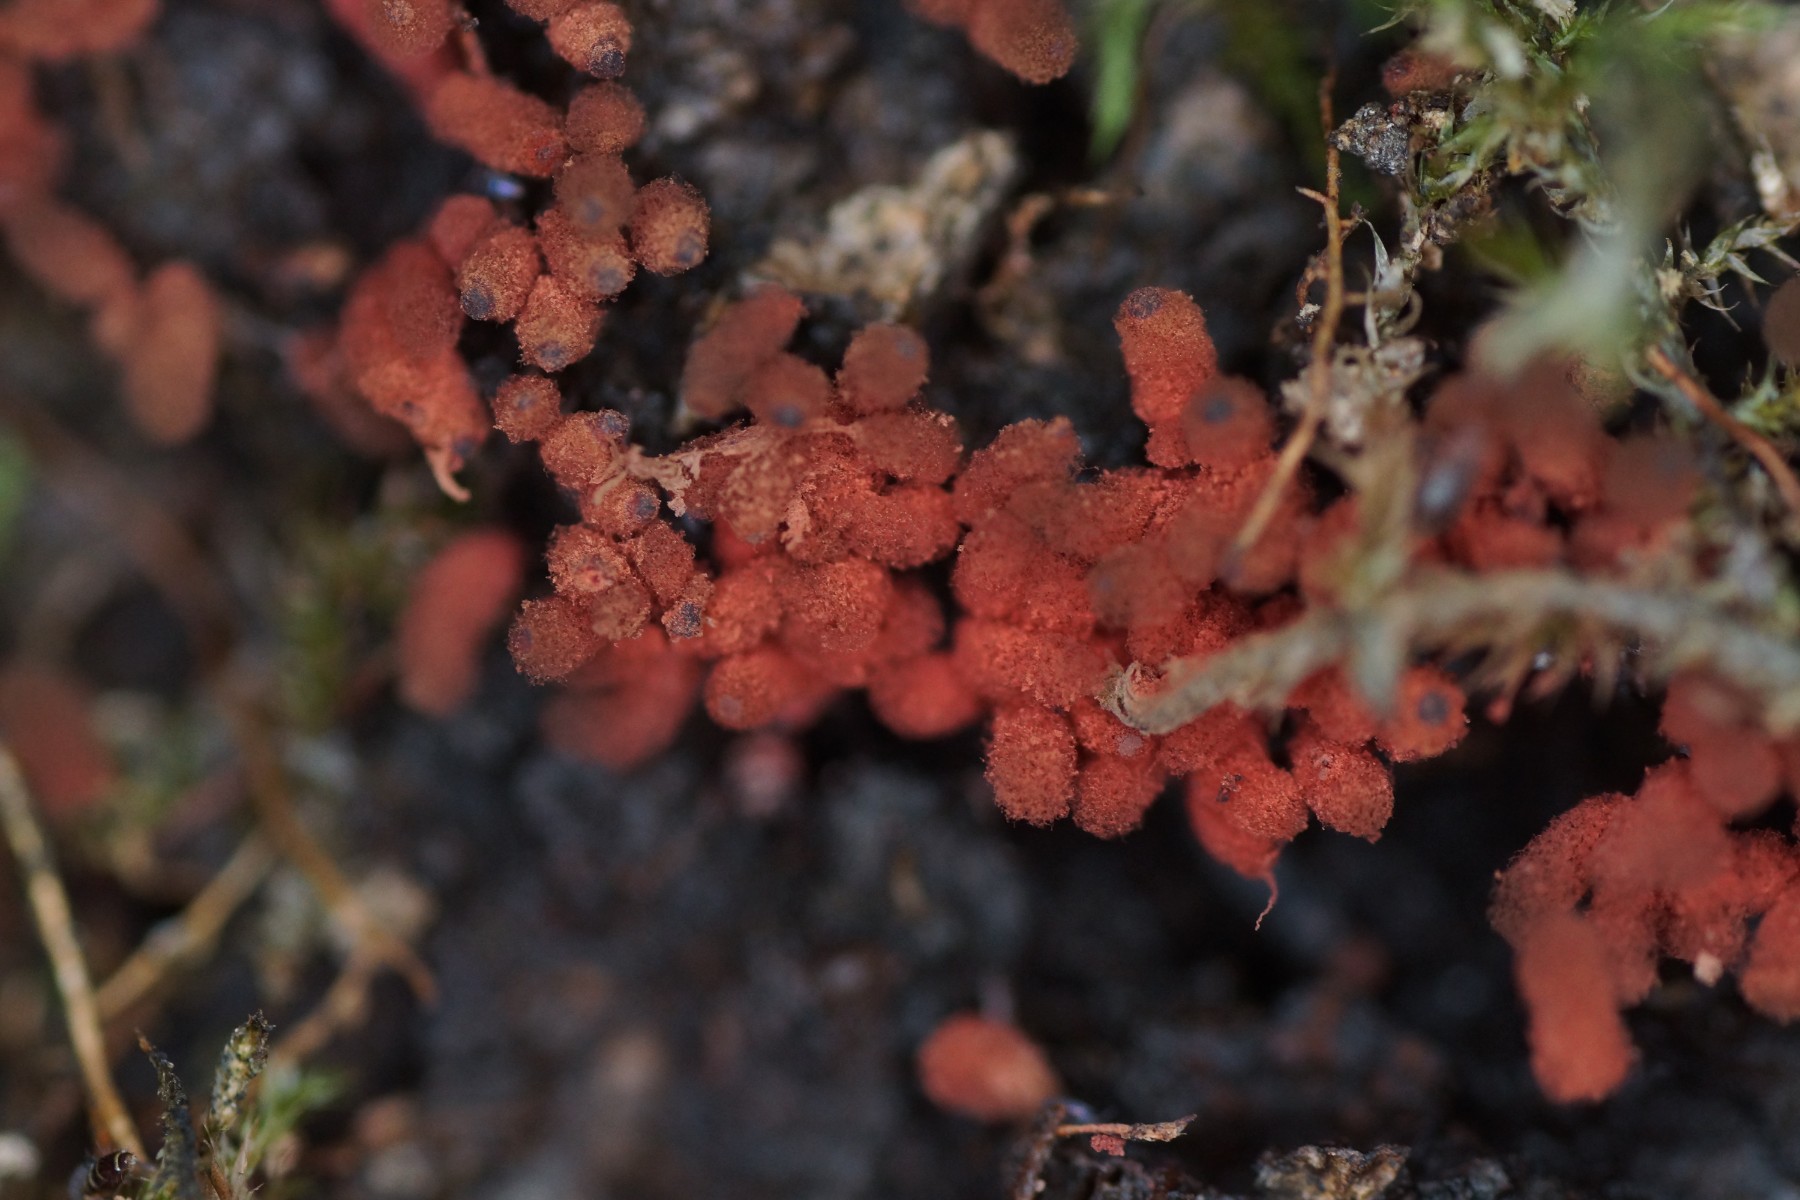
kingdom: Protozoa
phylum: Amoebozoa
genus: Arcyria
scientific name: Arcyria
